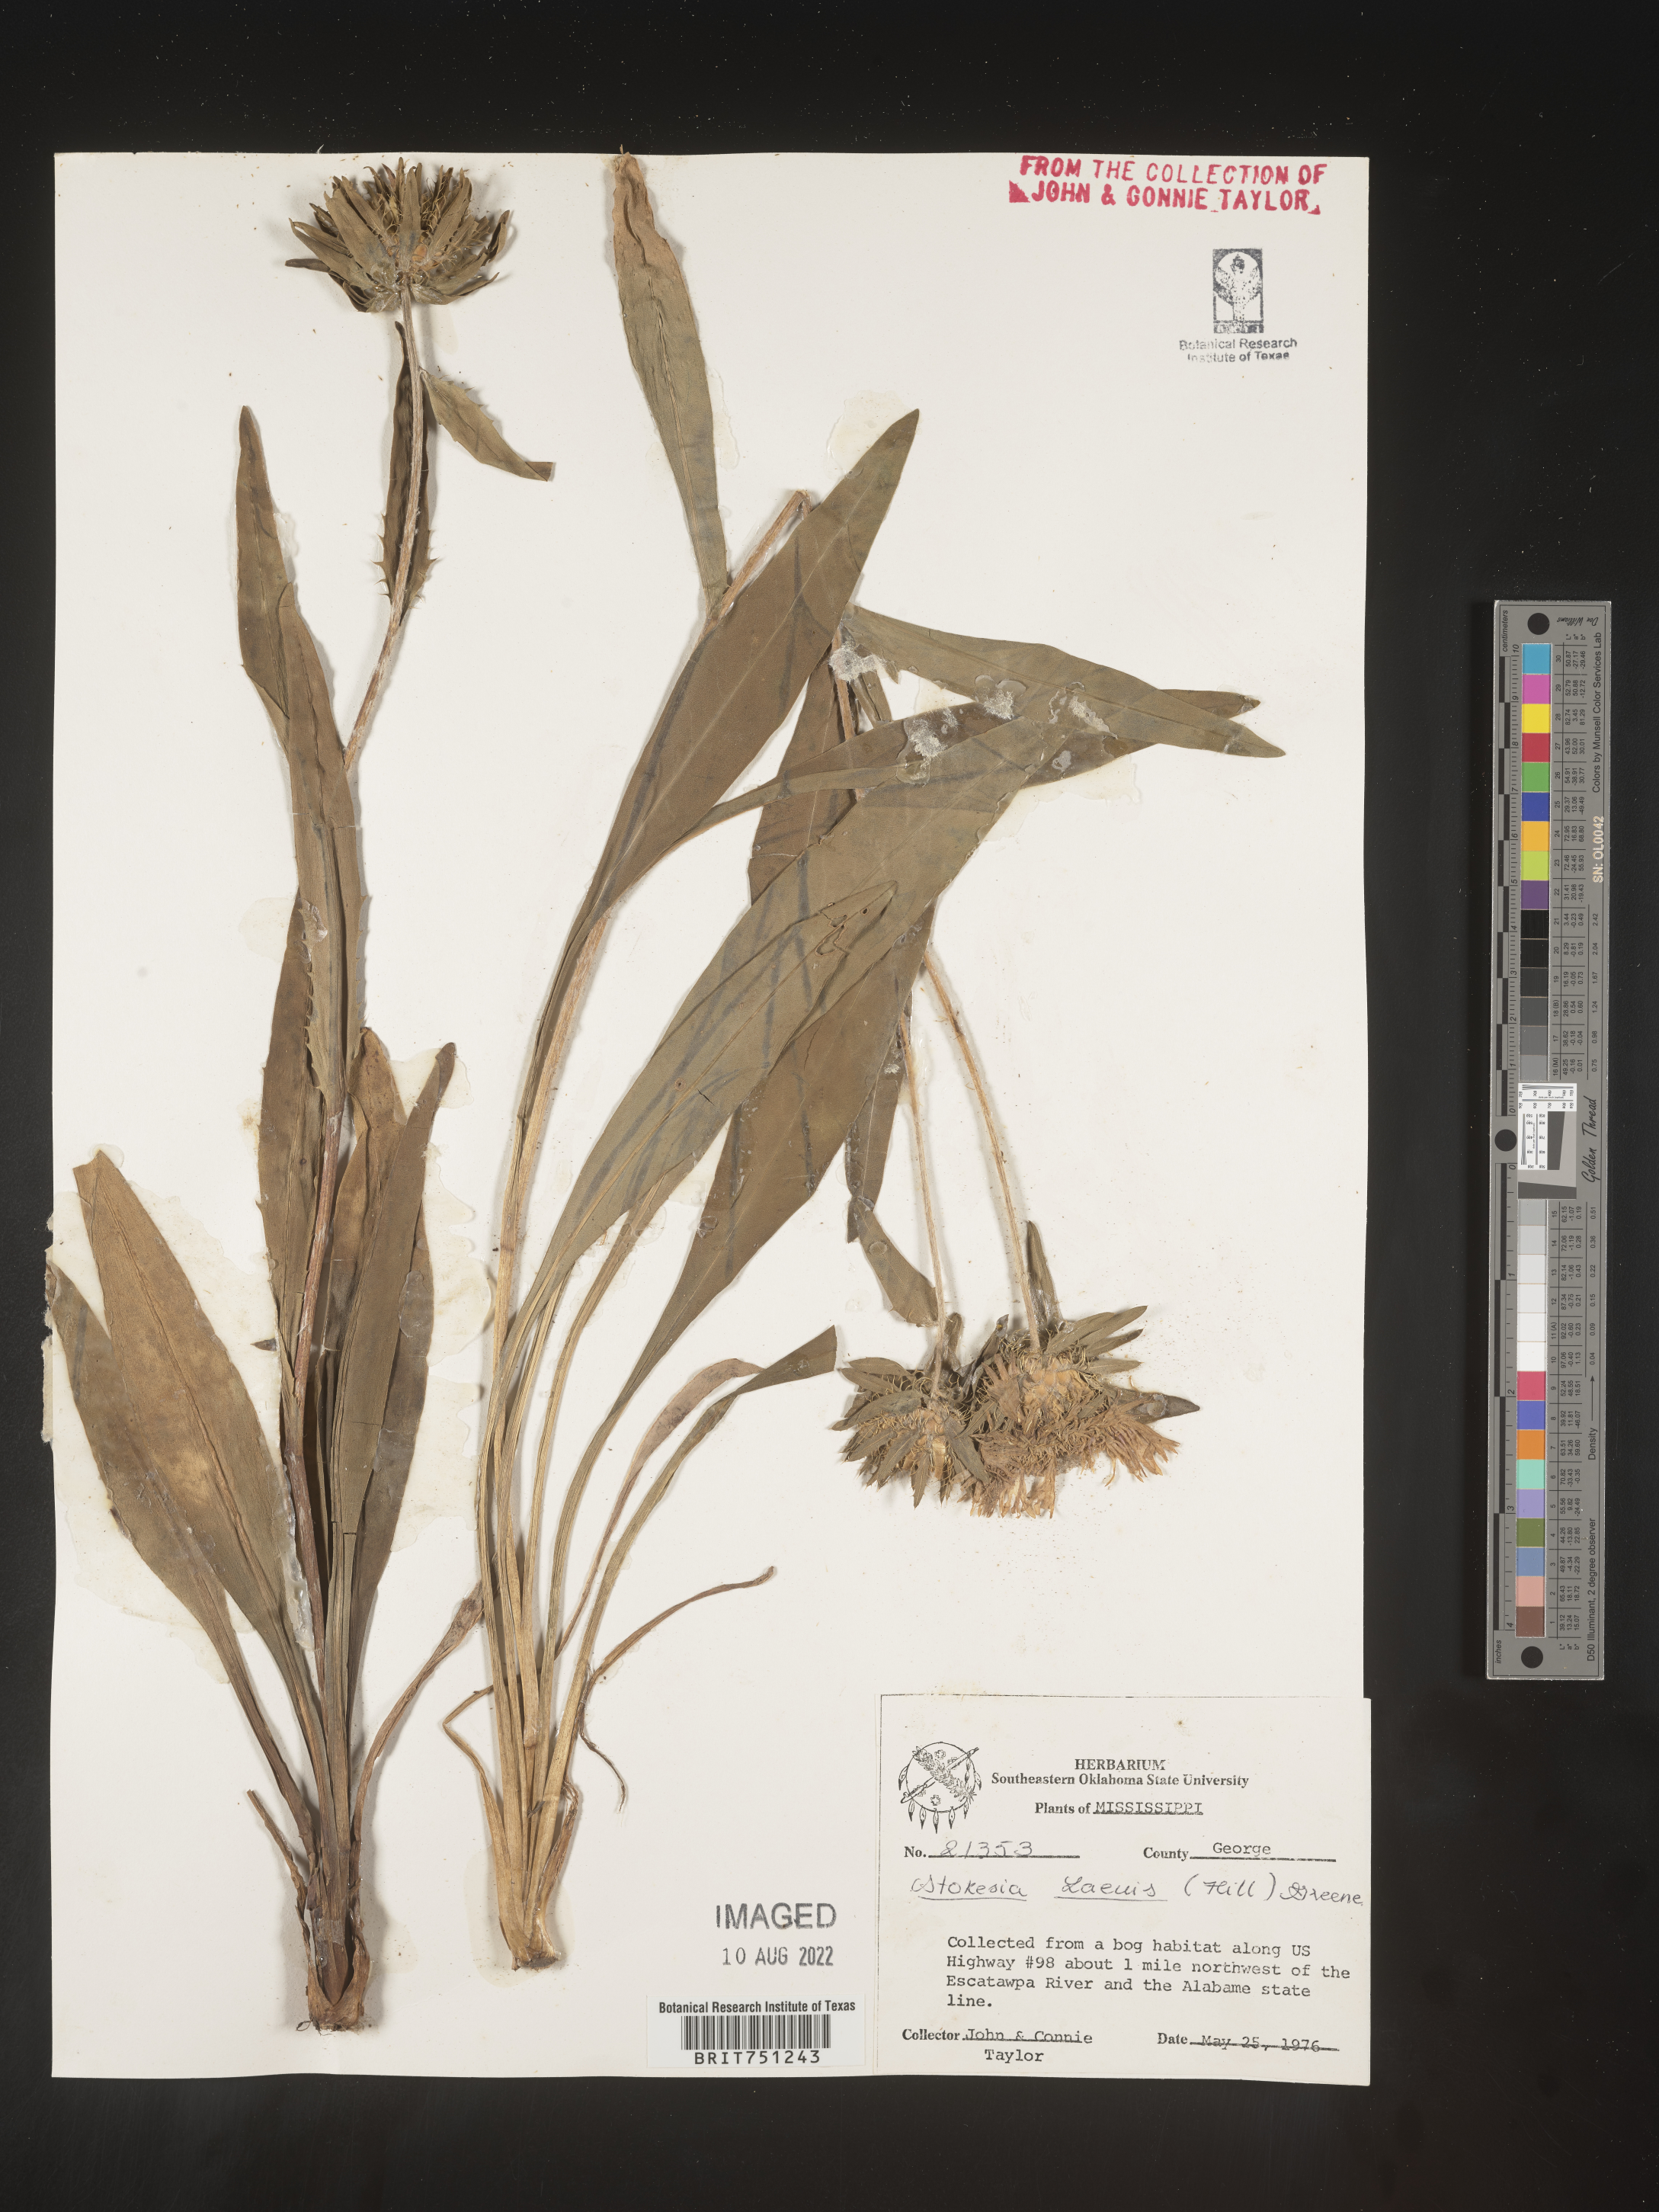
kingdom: Plantae
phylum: Tracheophyta
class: Magnoliopsida
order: Asterales
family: Asteraceae
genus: Stokesia
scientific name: Stokesia
